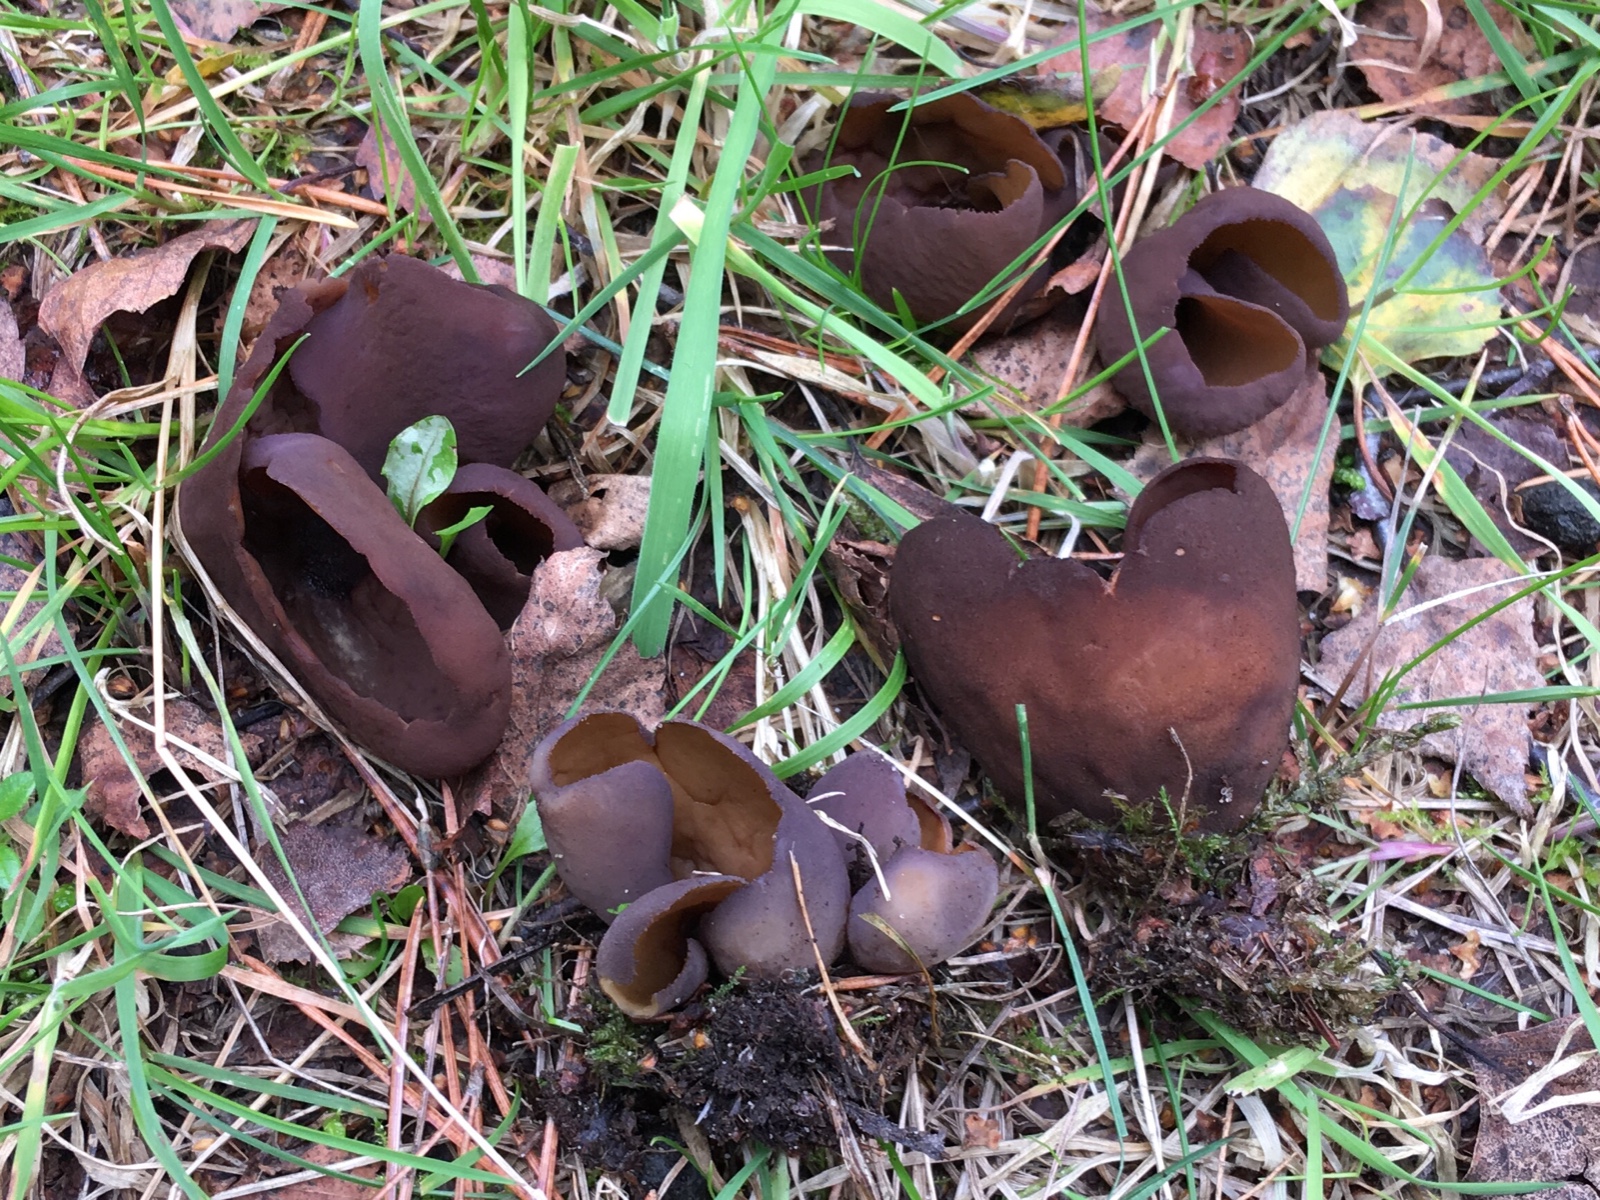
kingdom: Fungi
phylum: Ascomycota
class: Pezizomycetes
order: Pezizales
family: Otideaceae
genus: Otidea
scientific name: Otidea bufonia
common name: brun ørebæger
